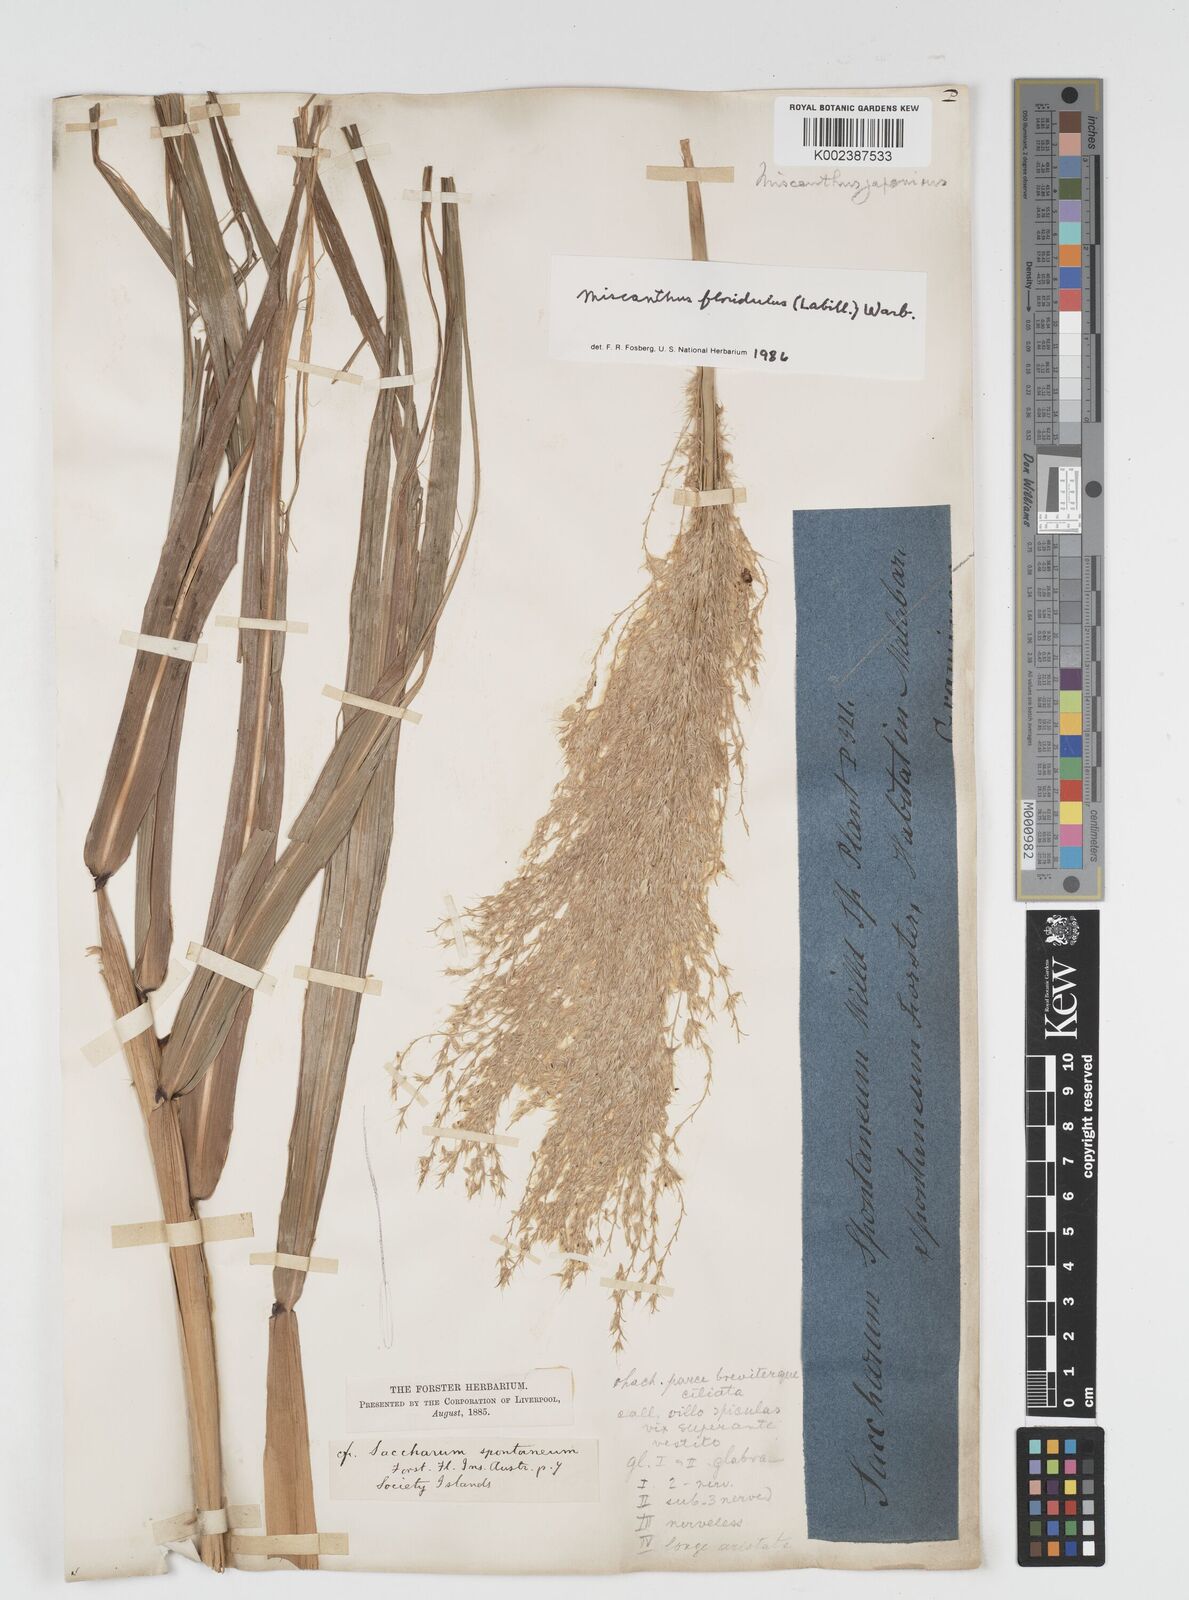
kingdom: Plantae
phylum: Tracheophyta
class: Liliopsida
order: Poales
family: Poaceae
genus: Miscanthus
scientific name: Miscanthus floridulus
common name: Pacific island silvergrass
